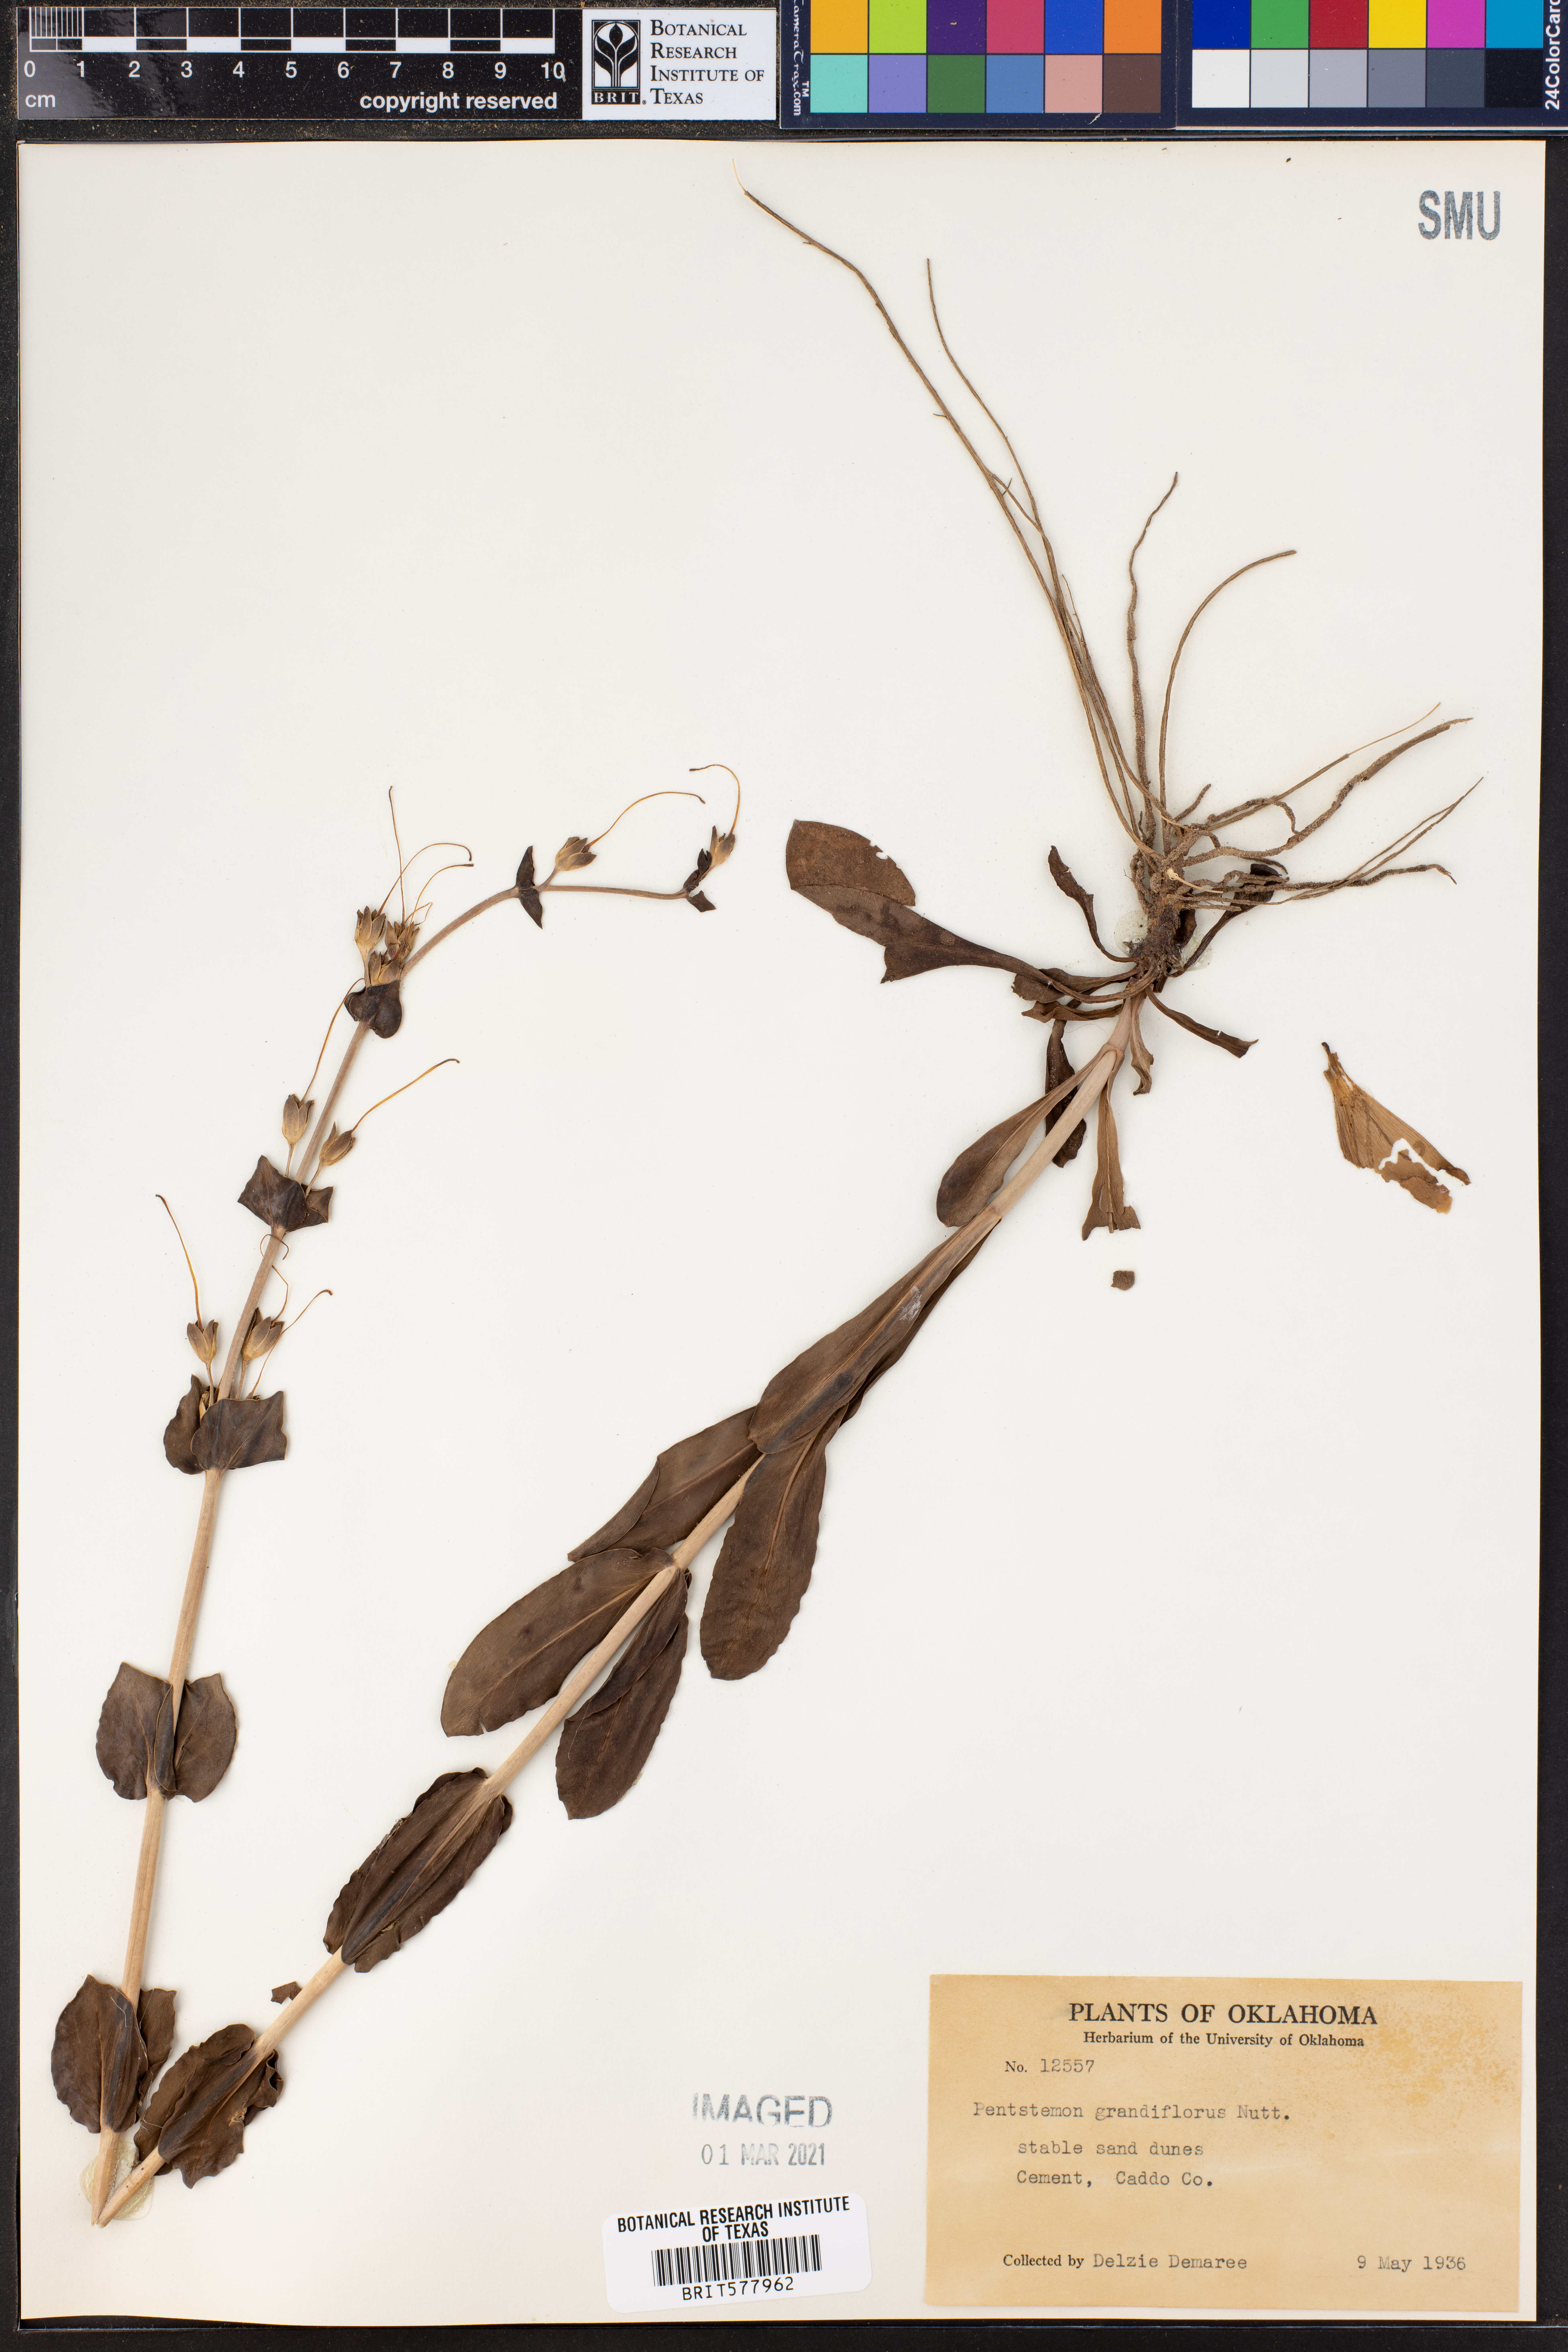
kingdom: Plantae
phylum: Tracheophyta
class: Magnoliopsida
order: Lamiales
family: Plantaginaceae
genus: Penstemon
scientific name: Penstemon bradburyi
